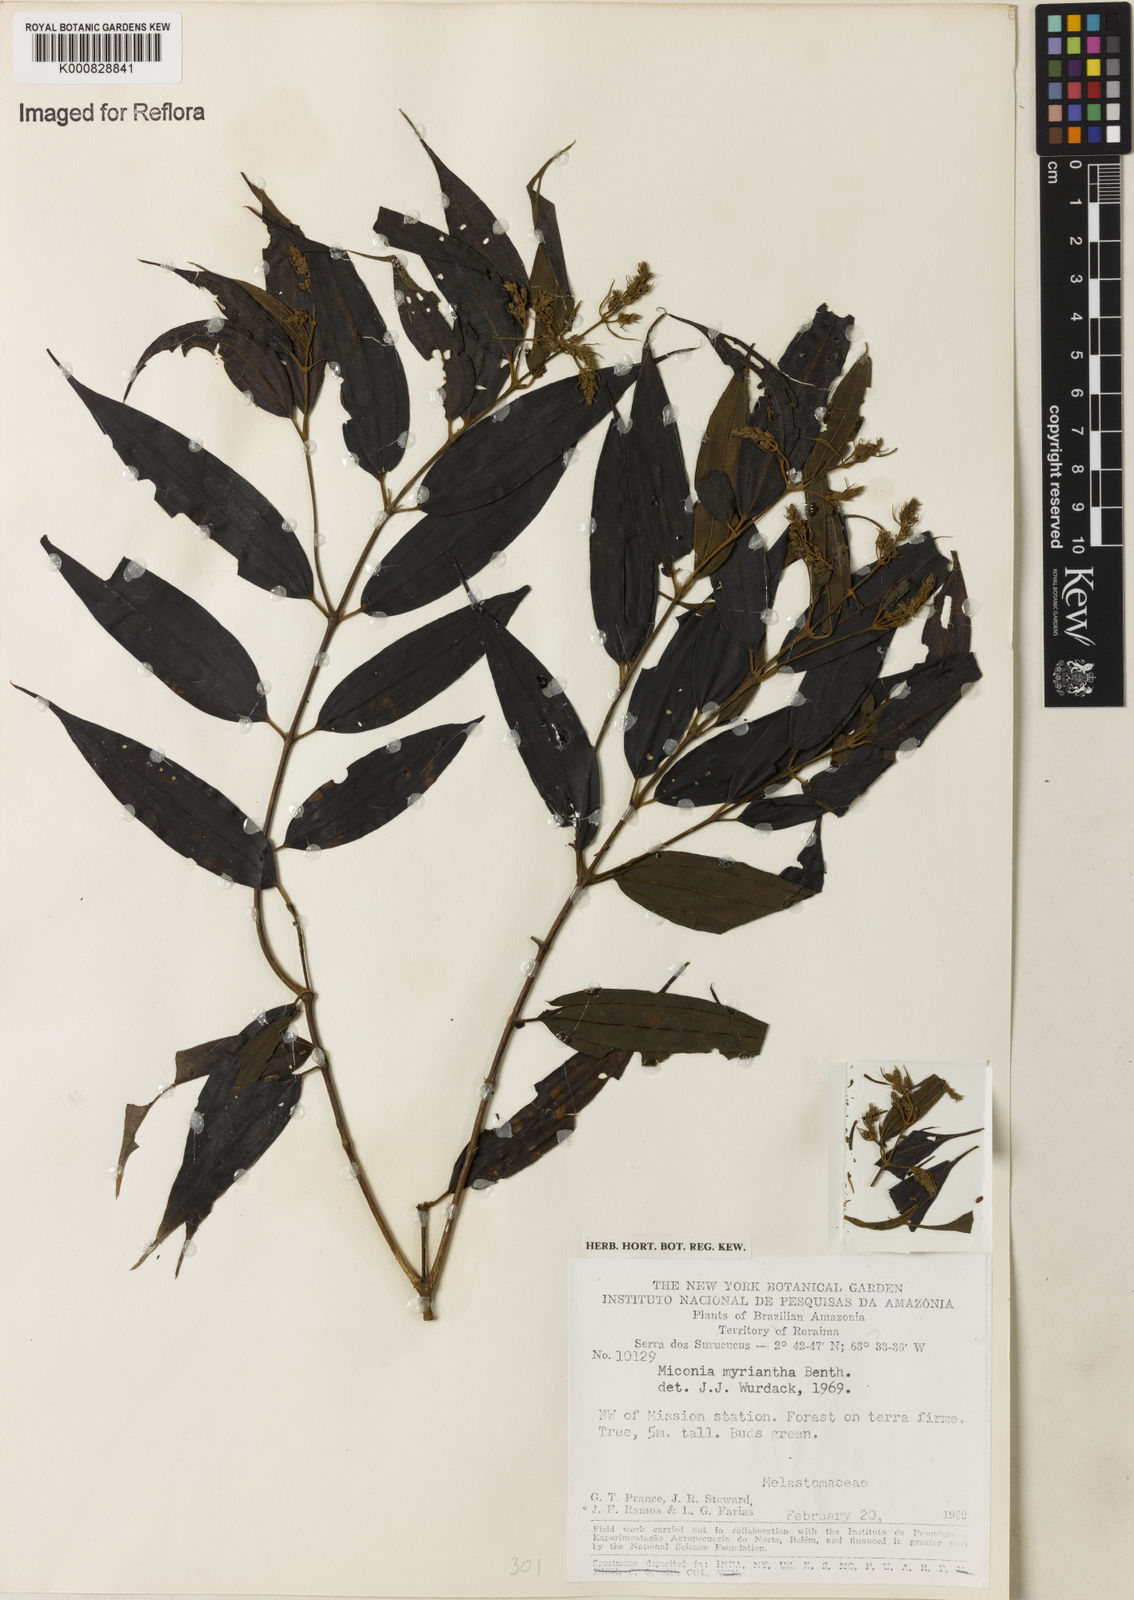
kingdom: Plantae
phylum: Tracheophyta
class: Magnoliopsida
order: Myrtales
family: Melastomataceae
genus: Miconia
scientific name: Miconia myriantha
